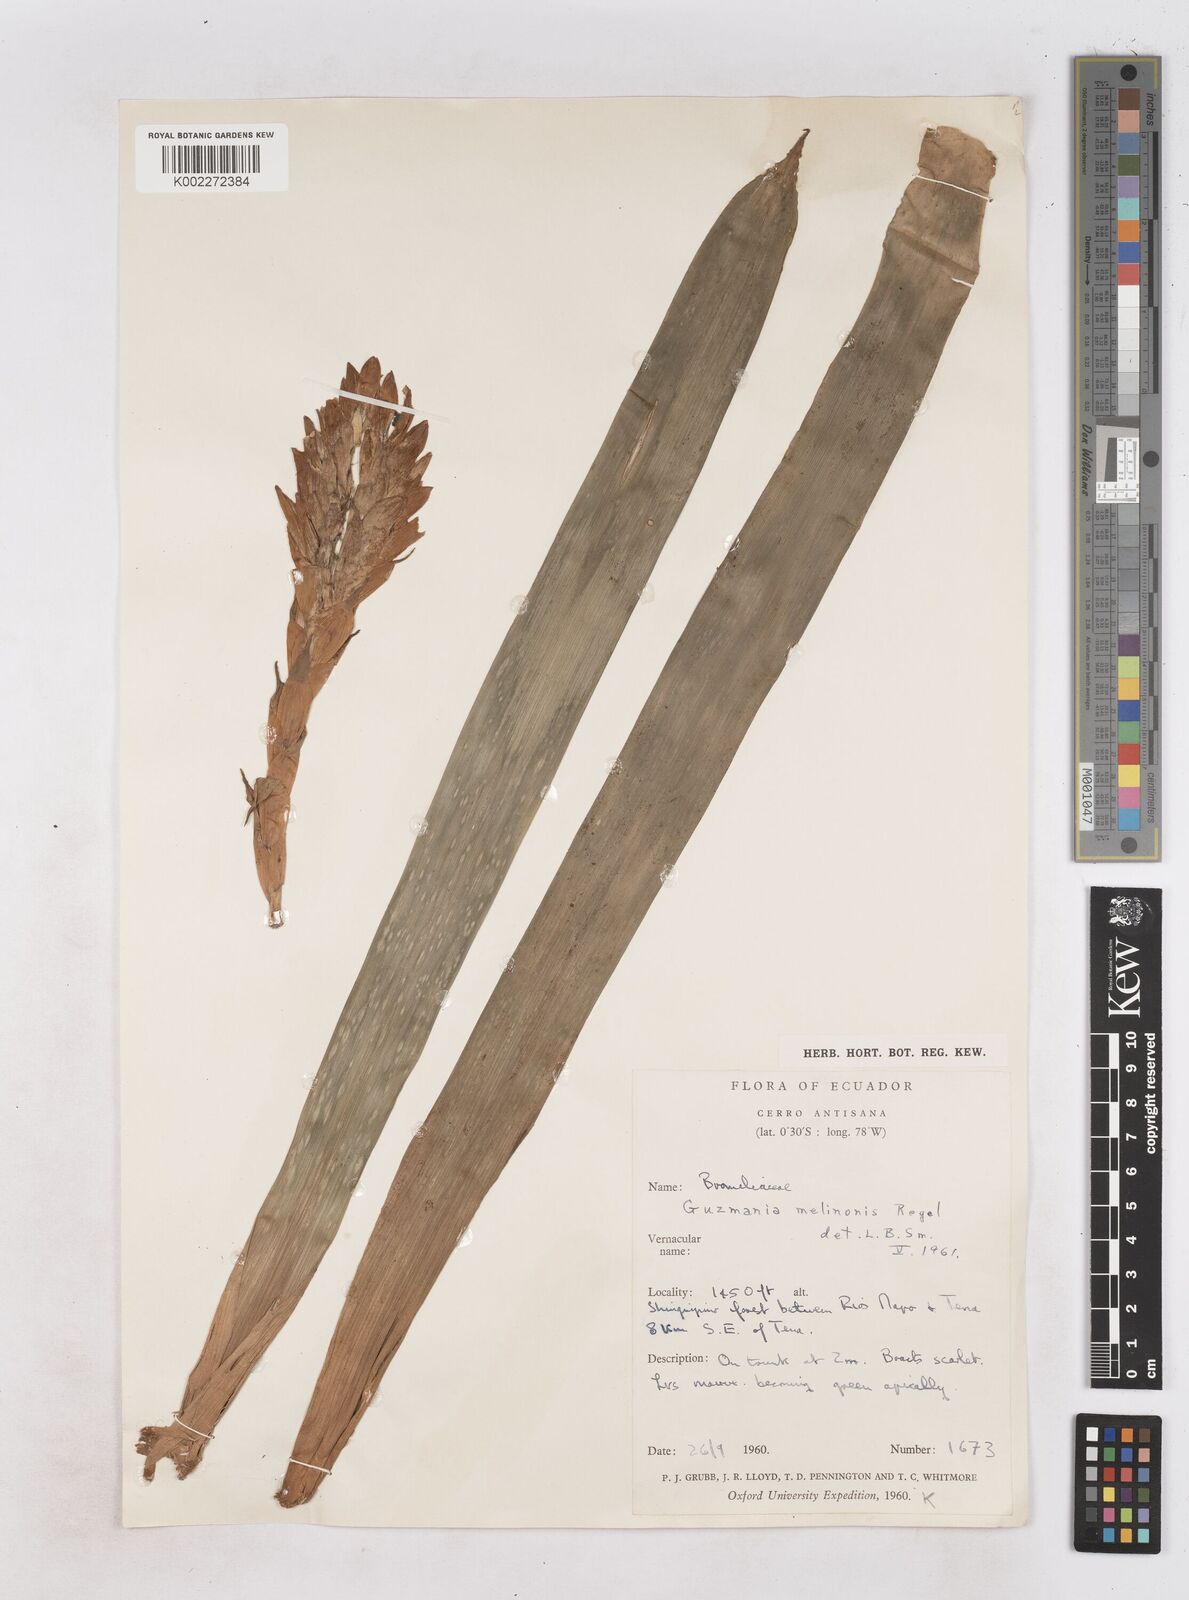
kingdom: Plantae
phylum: Tracheophyta
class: Liliopsida
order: Poales
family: Bromeliaceae
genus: Guzmania
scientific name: Guzmania melinonis
